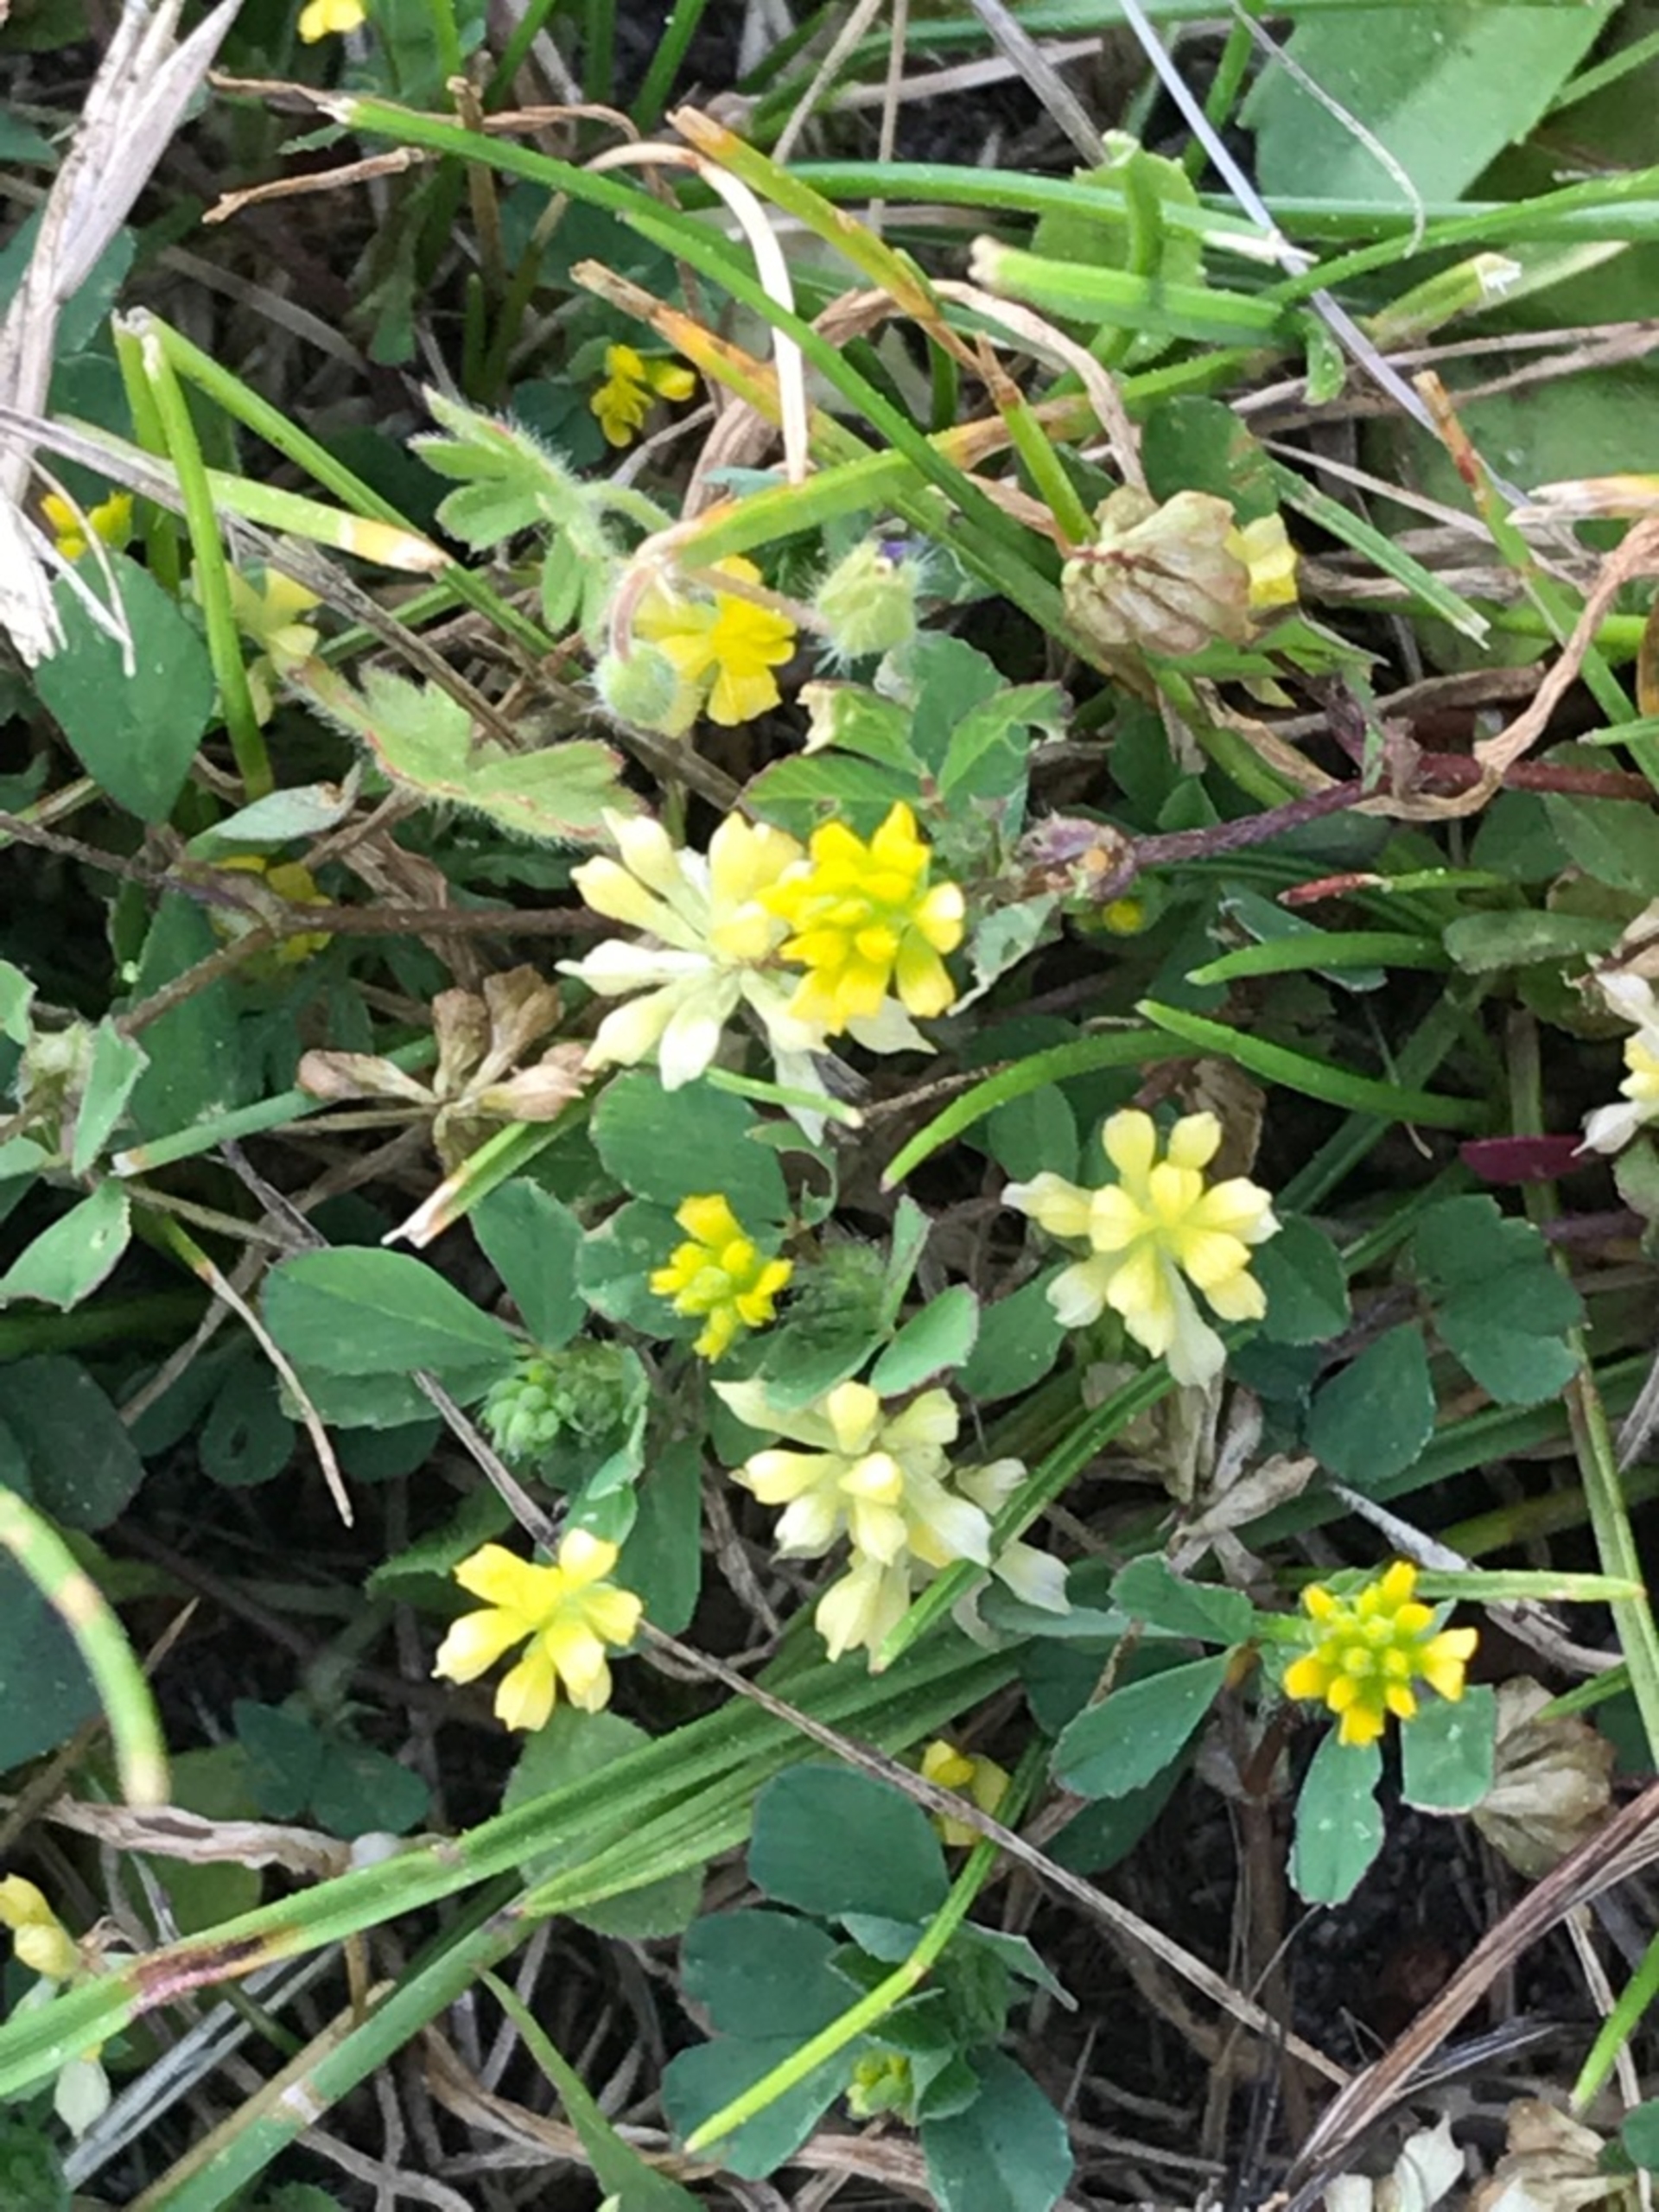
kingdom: Plantae
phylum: Tracheophyta
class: Magnoliopsida
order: Fabales
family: Fabaceae
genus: Trifolium
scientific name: Trifolium dubium
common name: Fin kløver
